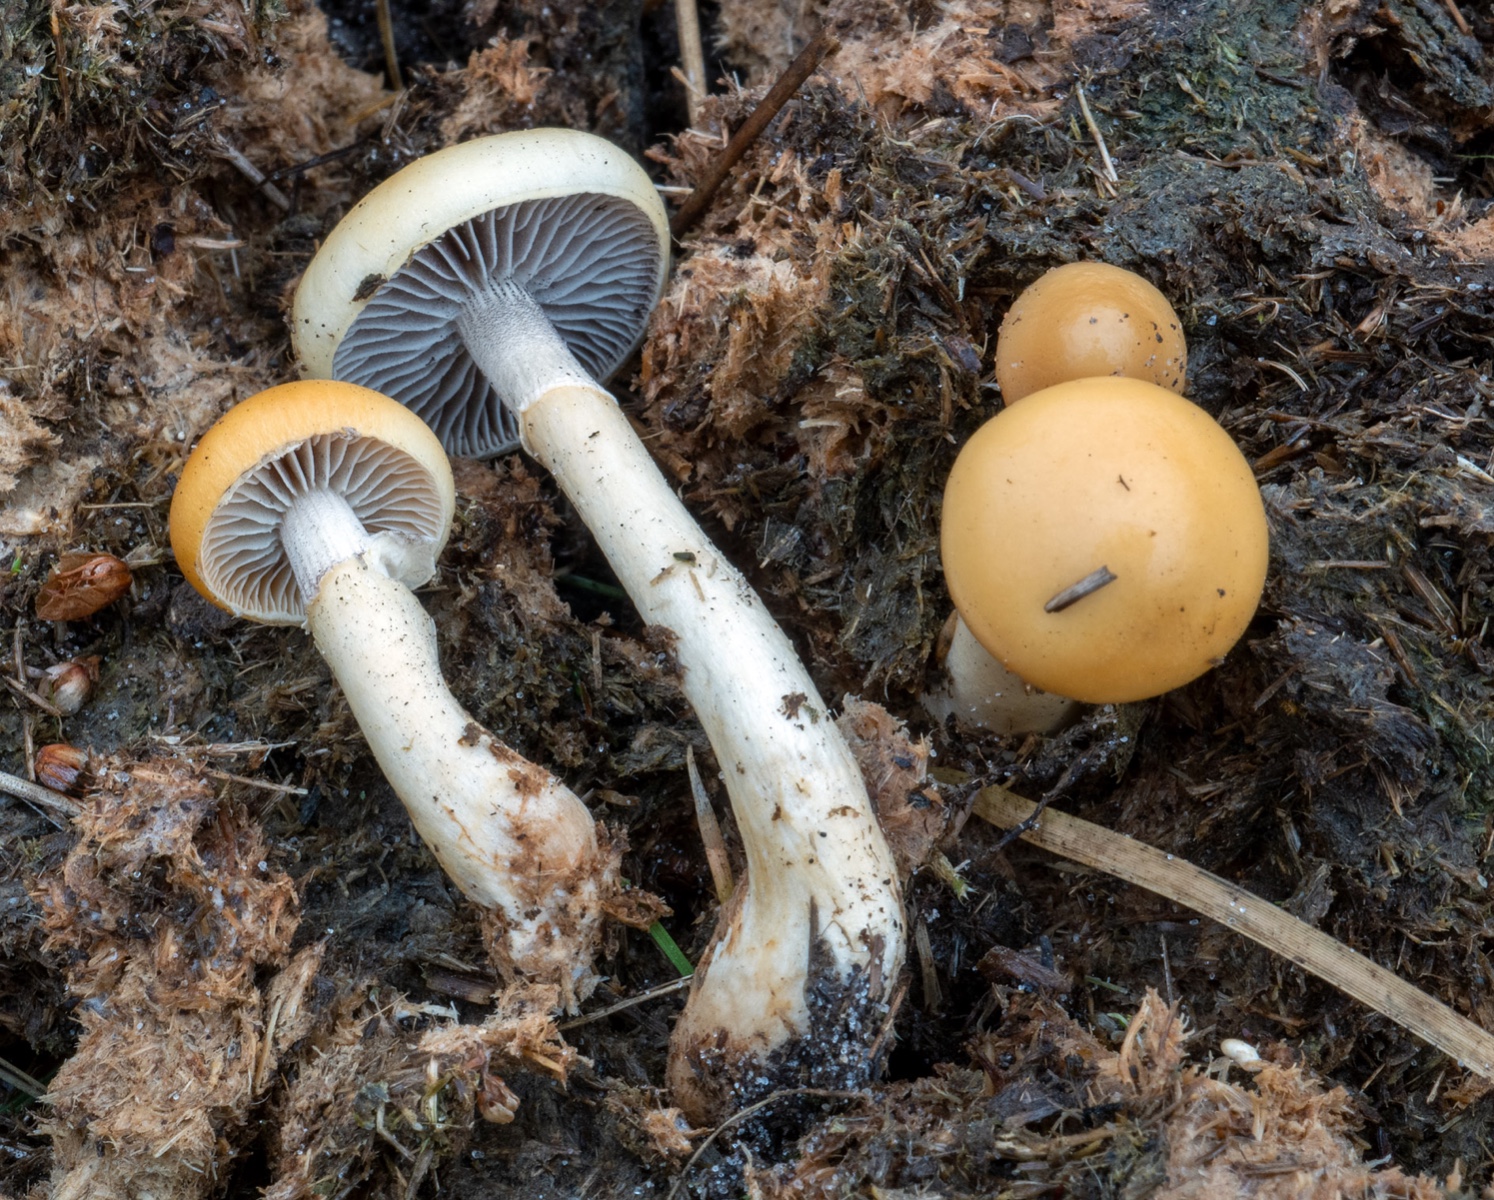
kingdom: Fungi
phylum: Basidiomycota
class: Agaricomycetes
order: Agaricales
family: Strophariaceae
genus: Protostropharia
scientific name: Protostropharia semiglobata
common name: halvkugleformet bredblad
